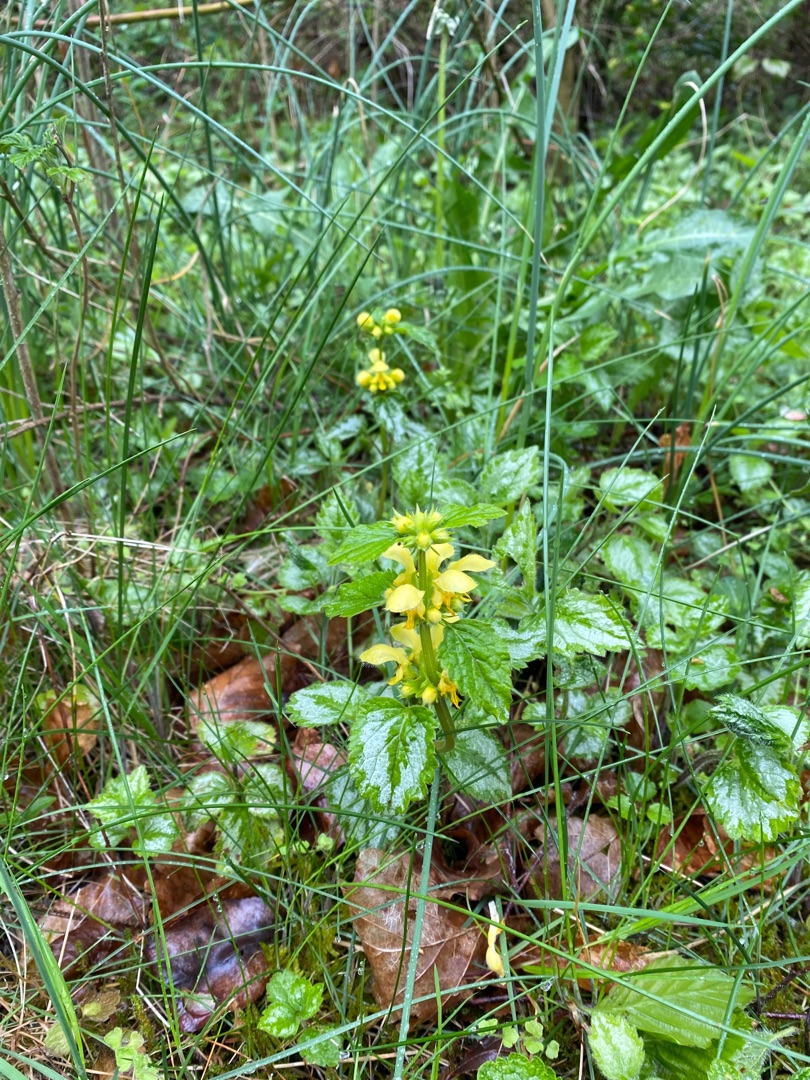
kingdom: Plantae
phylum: Tracheophyta
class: Magnoliopsida
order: Lamiales
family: Lamiaceae
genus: Lamium
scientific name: Lamium galeobdolon
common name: Have-guldnælde
